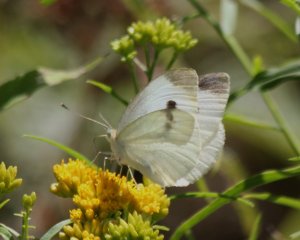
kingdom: Animalia
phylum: Arthropoda
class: Insecta
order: Lepidoptera
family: Pieridae
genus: Pieris
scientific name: Pieris rapae
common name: Cabbage White
